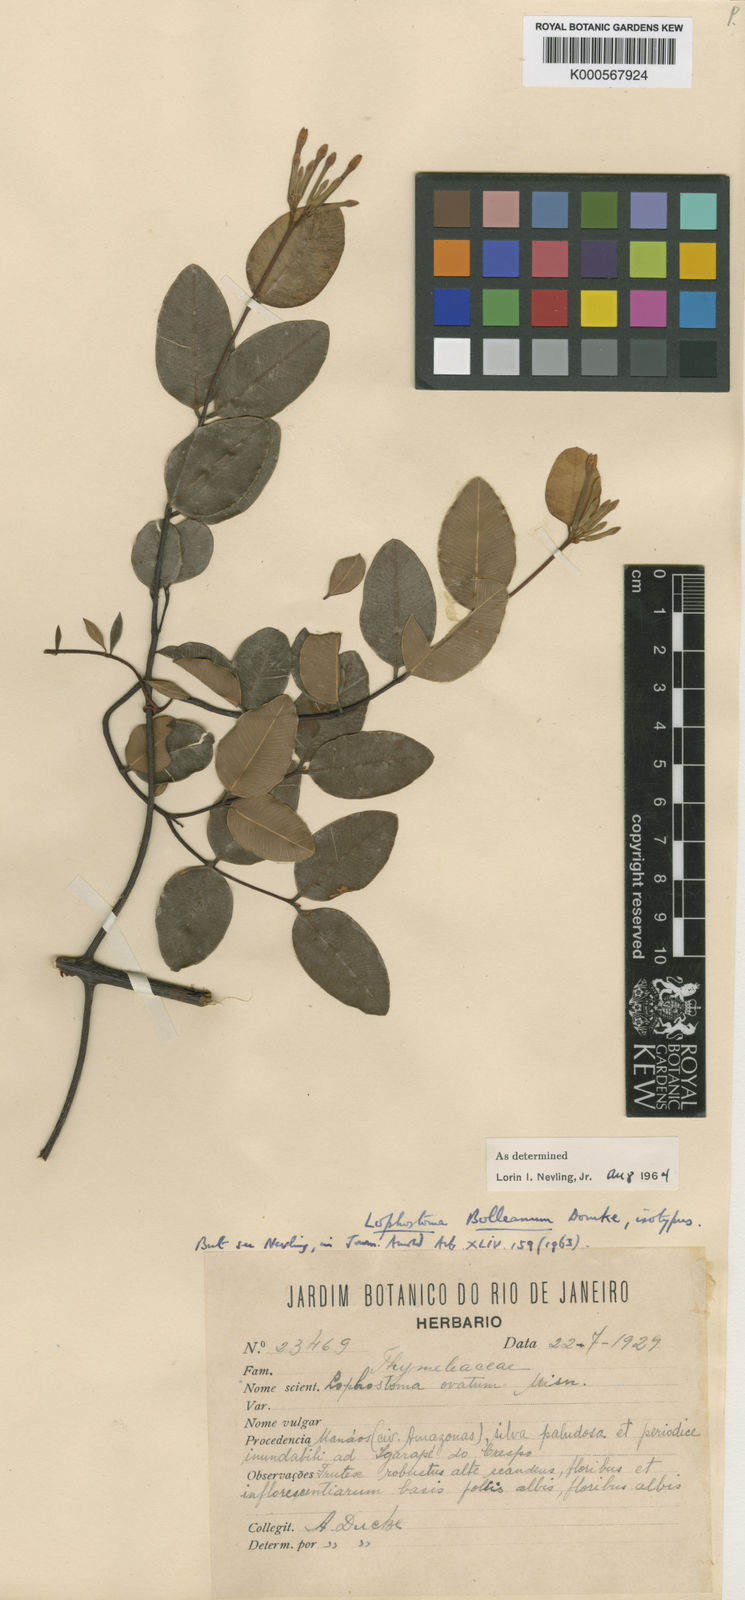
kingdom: Plantae
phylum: Tracheophyta
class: Magnoliopsida
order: Malvales
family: Thymelaeaceae
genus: Lophostoma
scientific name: Lophostoma ovatum
